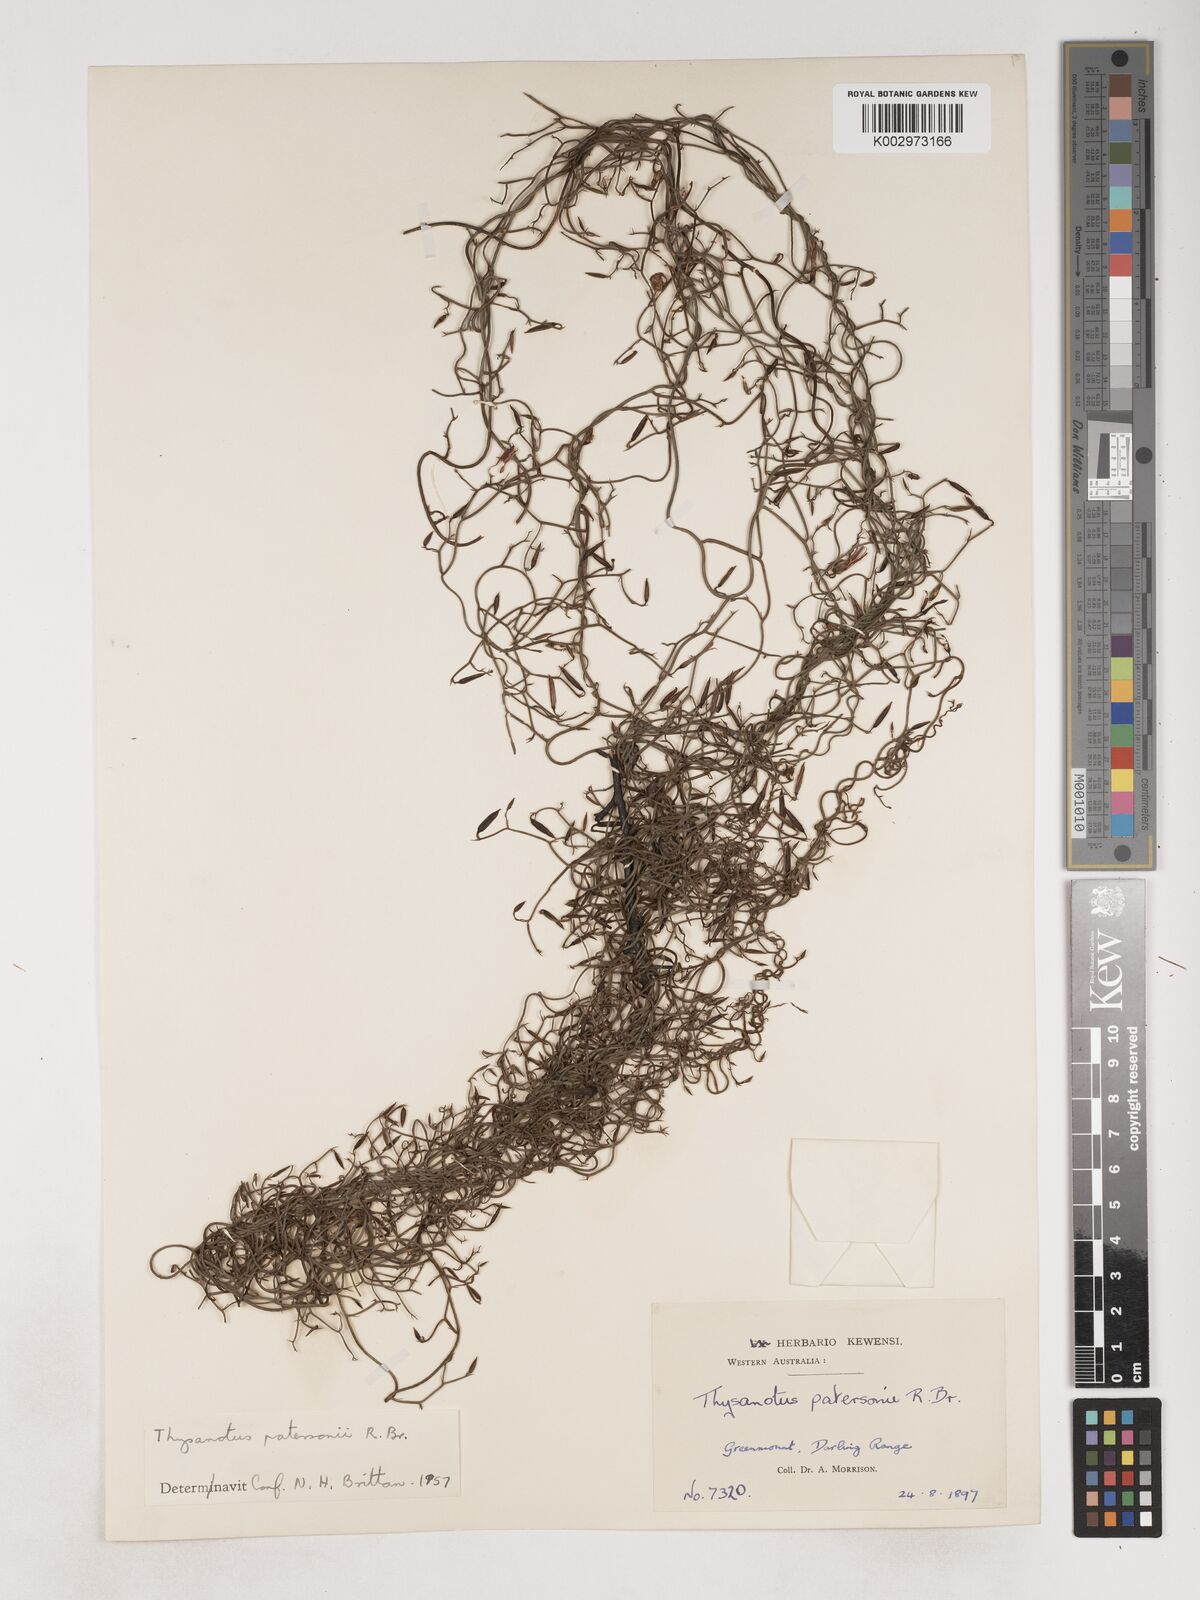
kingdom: Plantae
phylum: Tracheophyta
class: Liliopsida
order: Asparagales
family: Asparagaceae
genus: Thysanotus
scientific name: Thysanotus patersonii
